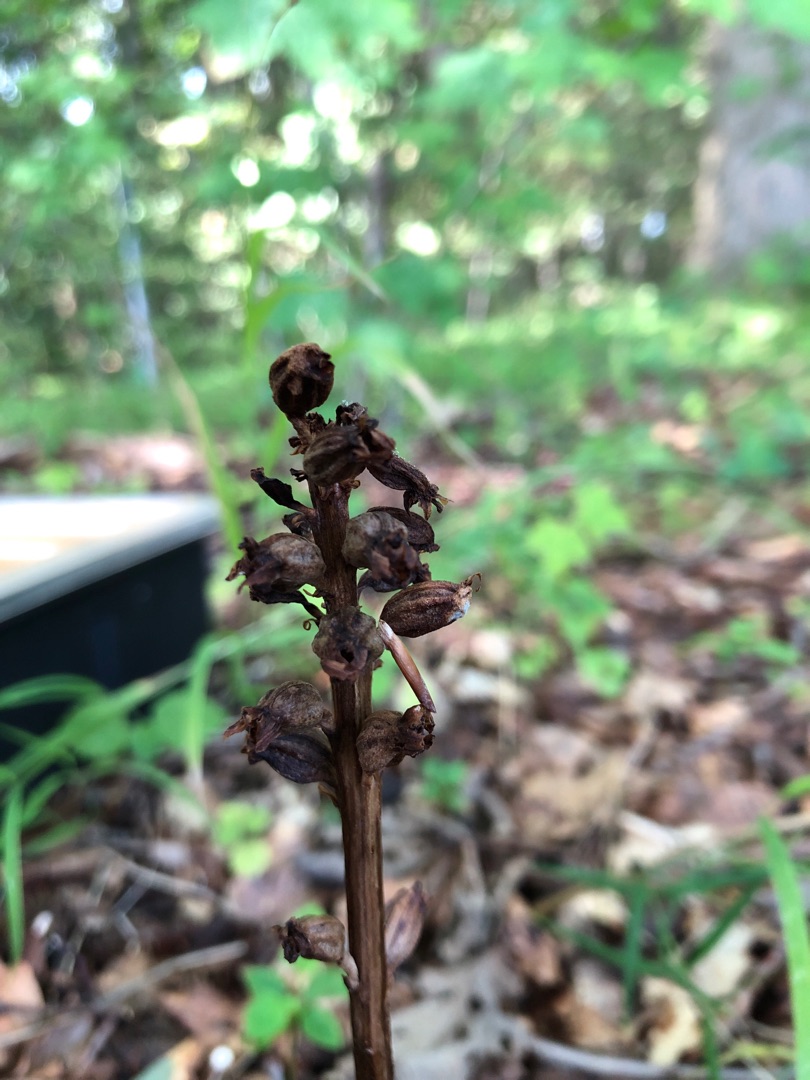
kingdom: Plantae
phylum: Tracheophyta
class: Liliopsida
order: Asparagales
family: Orchidaceae
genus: Neottia
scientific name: Neottia nidus-avis
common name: Rederod
